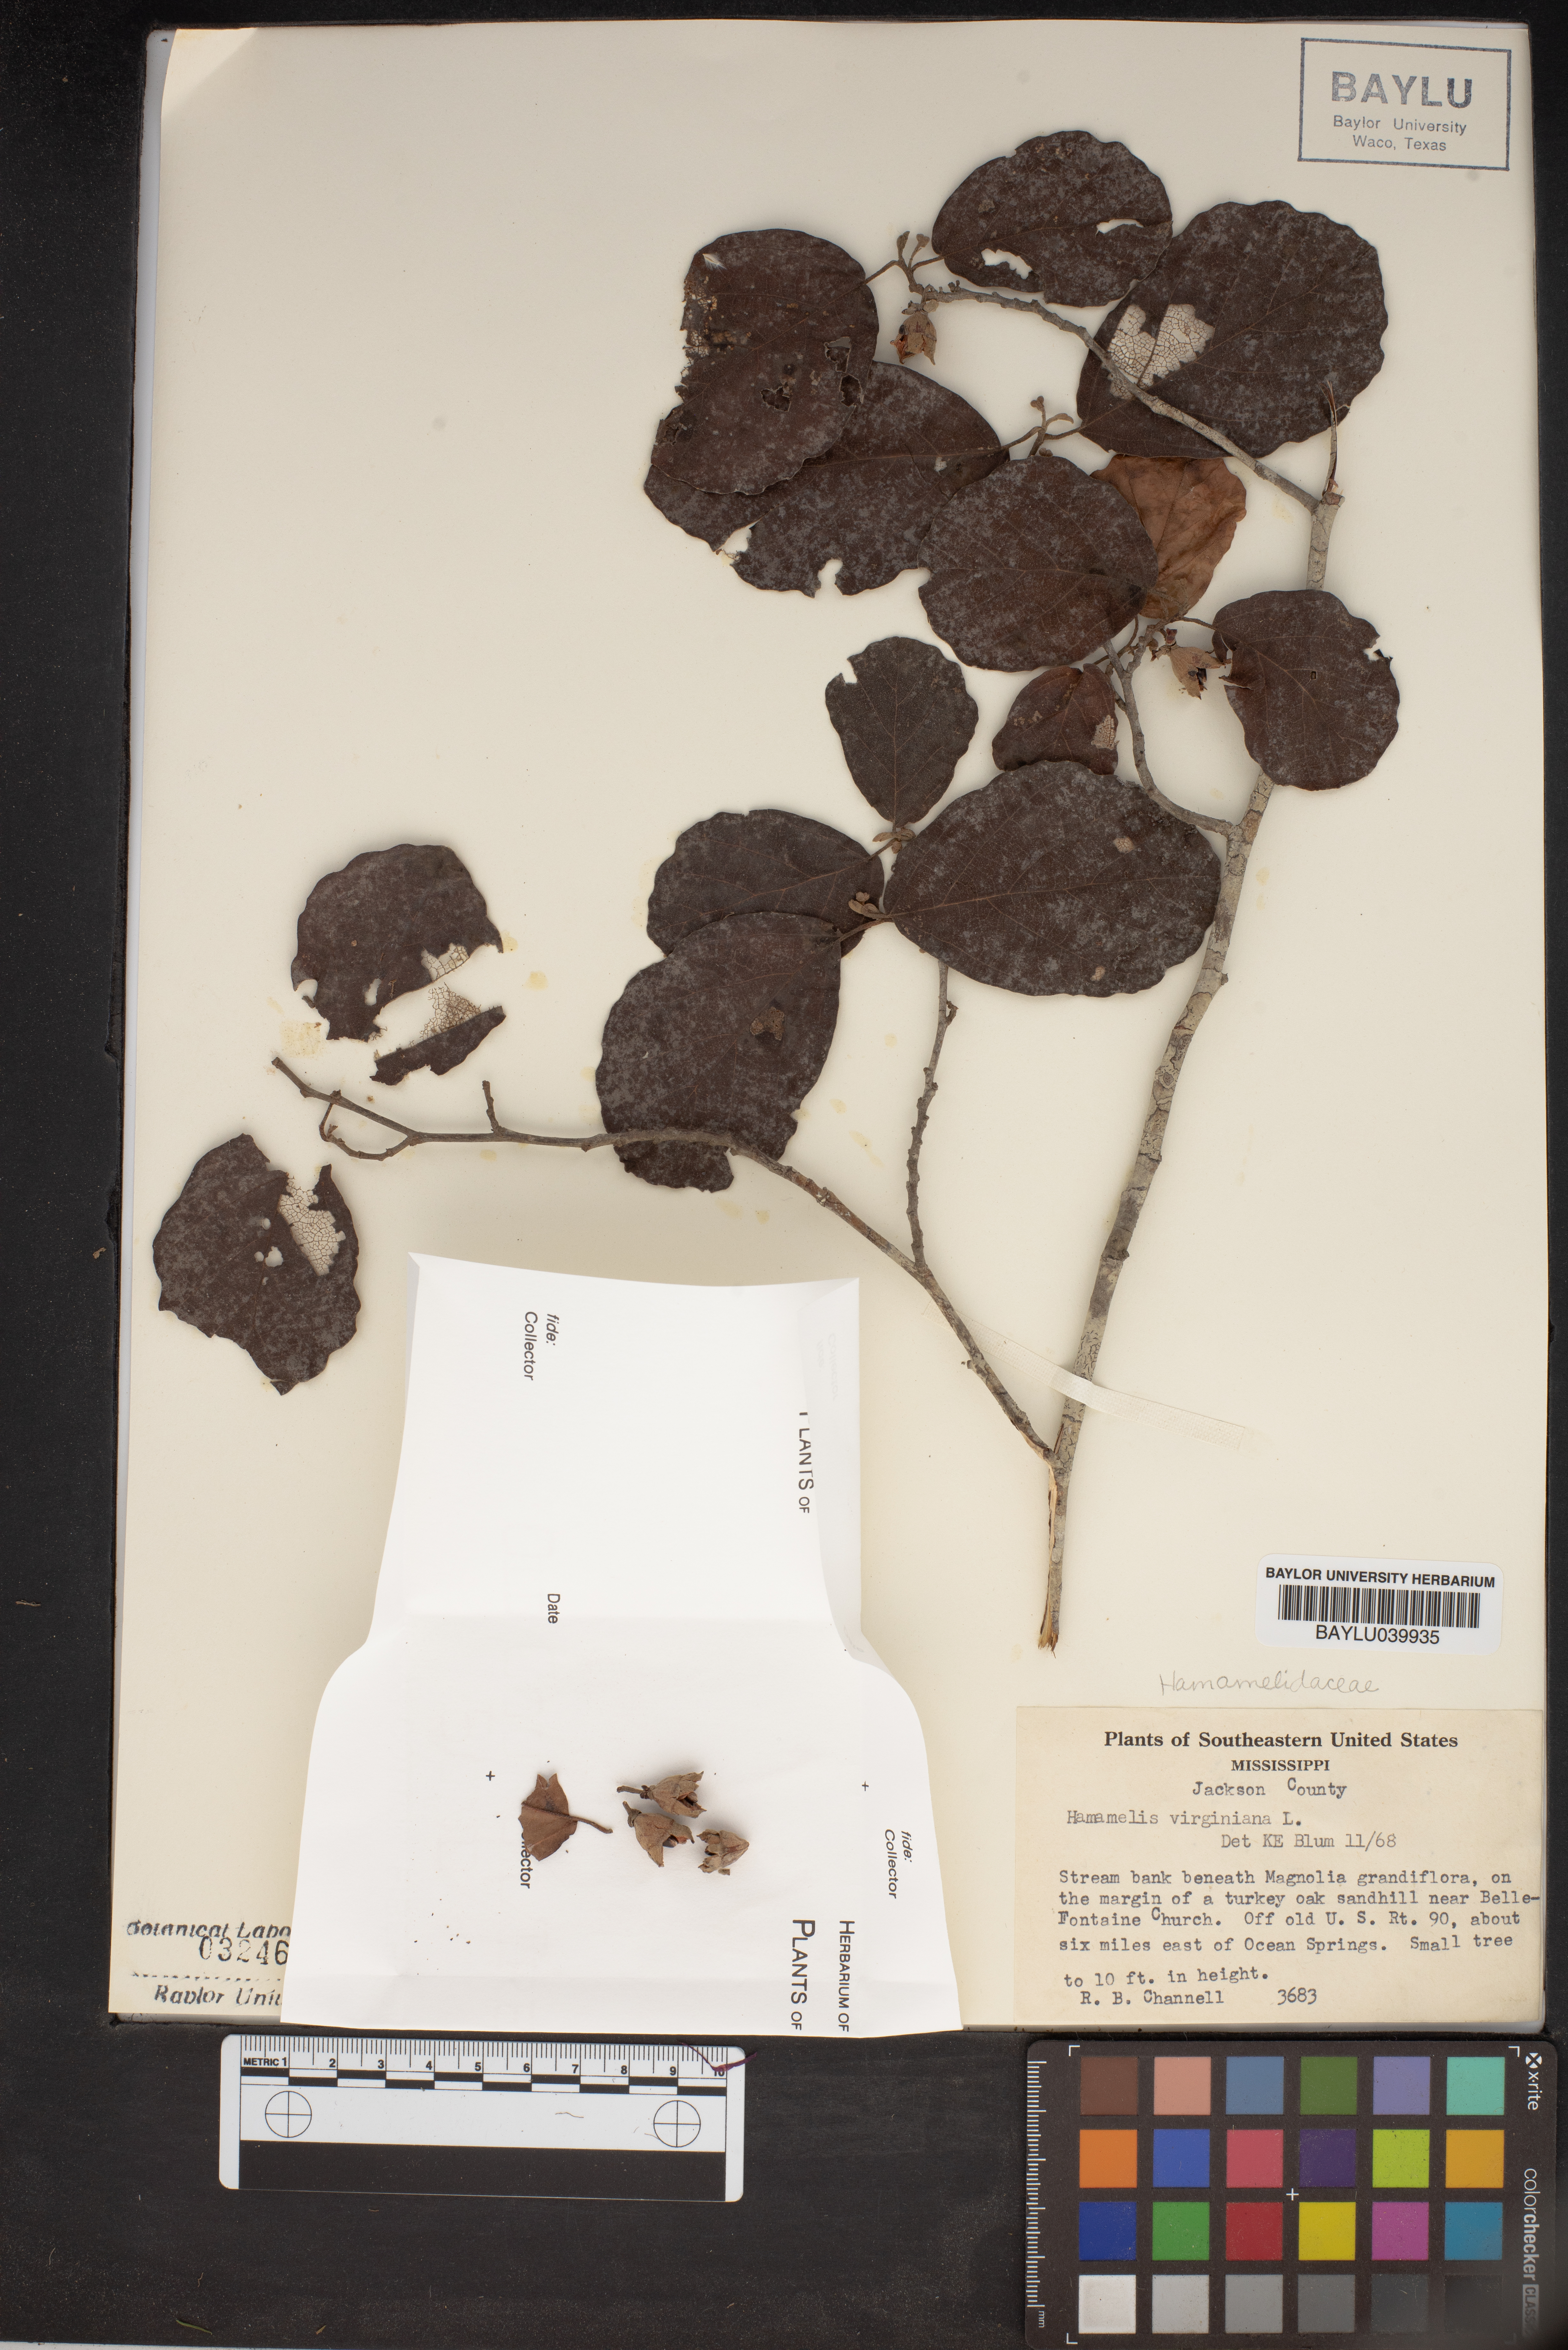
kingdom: Plantae
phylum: Tracheophyta
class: Magnoliopsida
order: Saxifragales
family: Hamamelidaceae
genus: Hamamelis
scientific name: Hamamelis virginiana
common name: Witch-hazel
